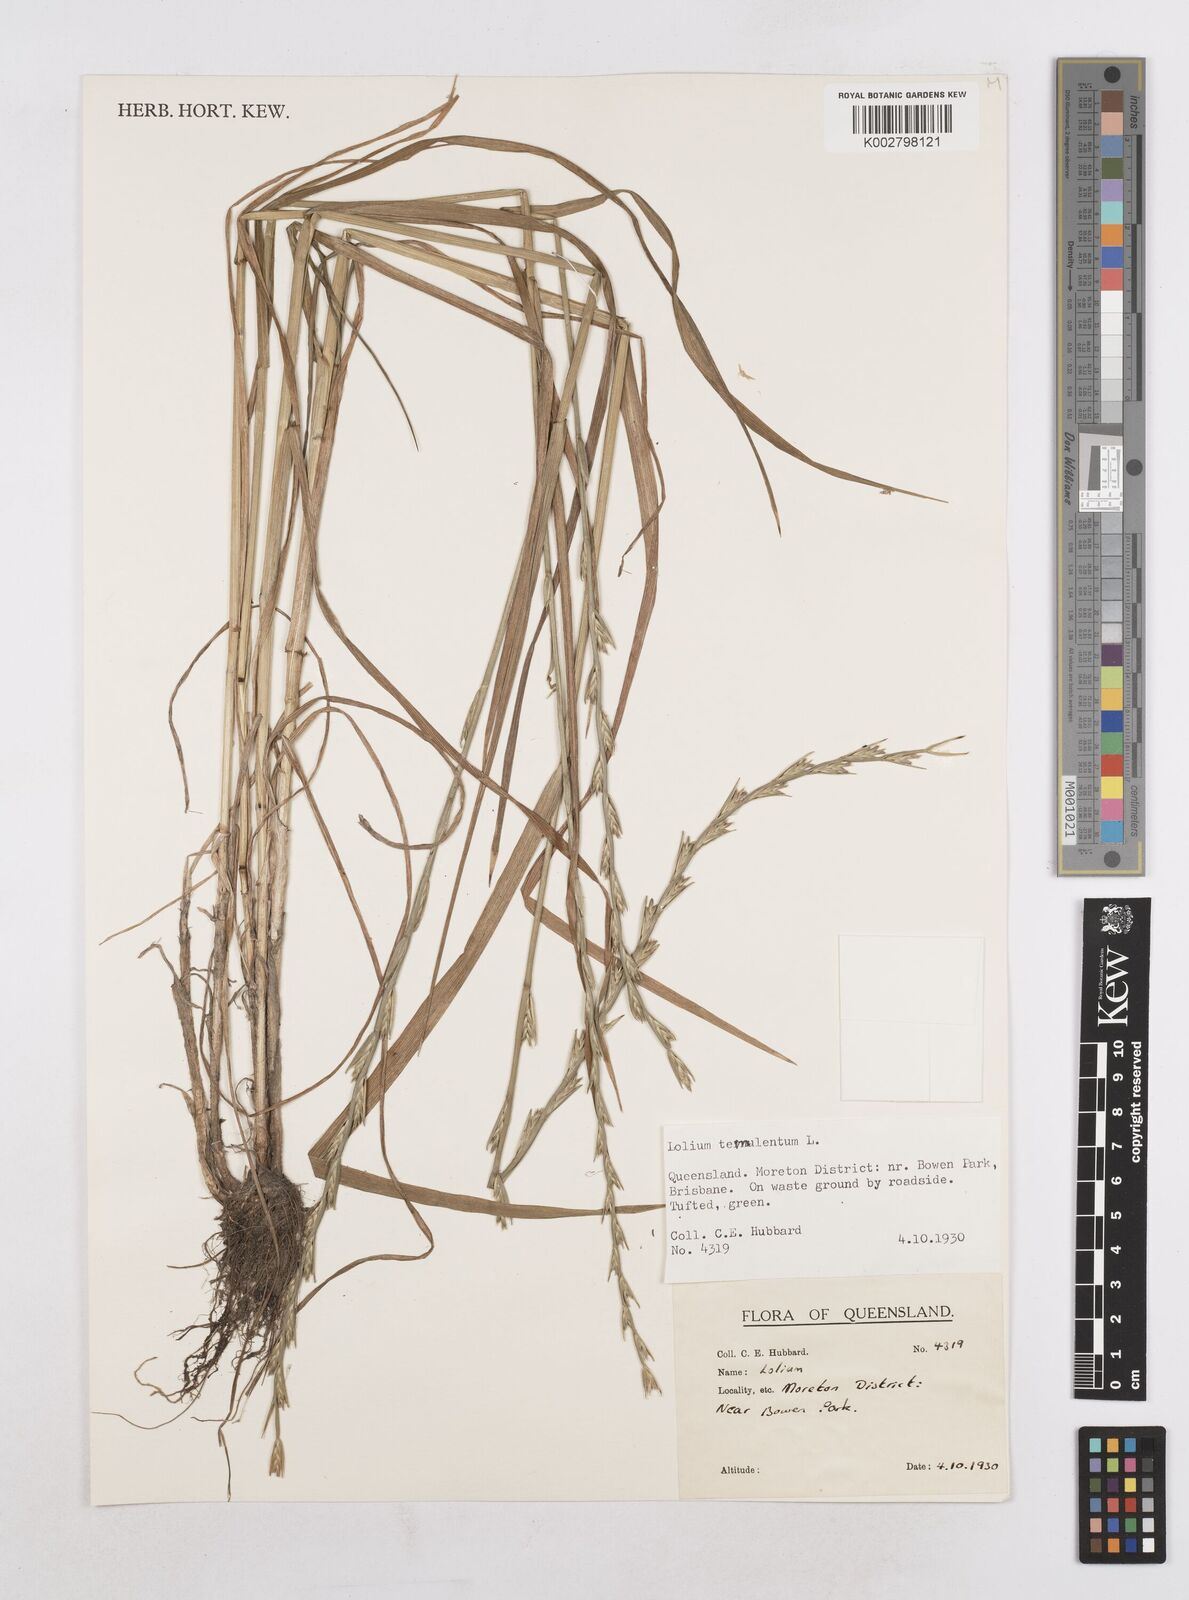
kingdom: Plantae
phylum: Tracheophyta
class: Liliopsida
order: Poales
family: Poaceae
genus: Lolium
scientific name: Lolium temulentum
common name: Darnel
